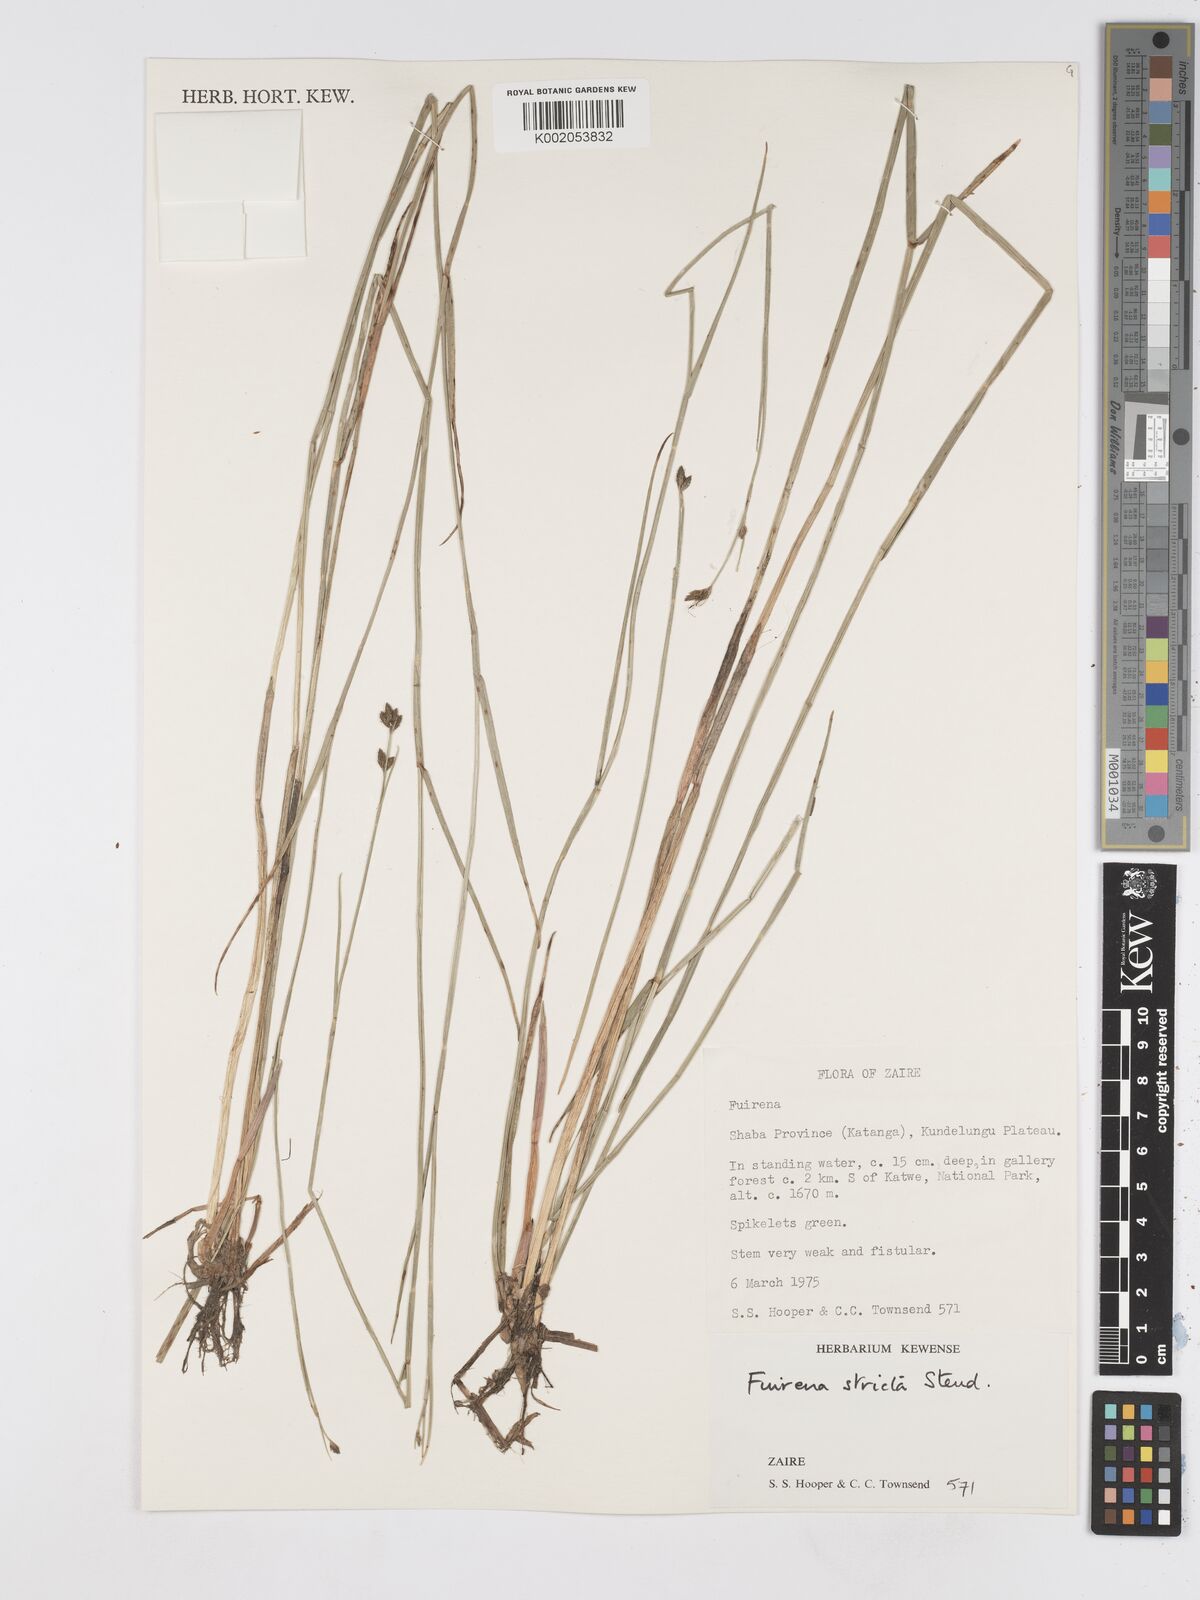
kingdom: Plantae
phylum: Tracheophyta
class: Liliopsida
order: Poales
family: Cyperaceae
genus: Fuirena
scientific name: Fuirena stricta
